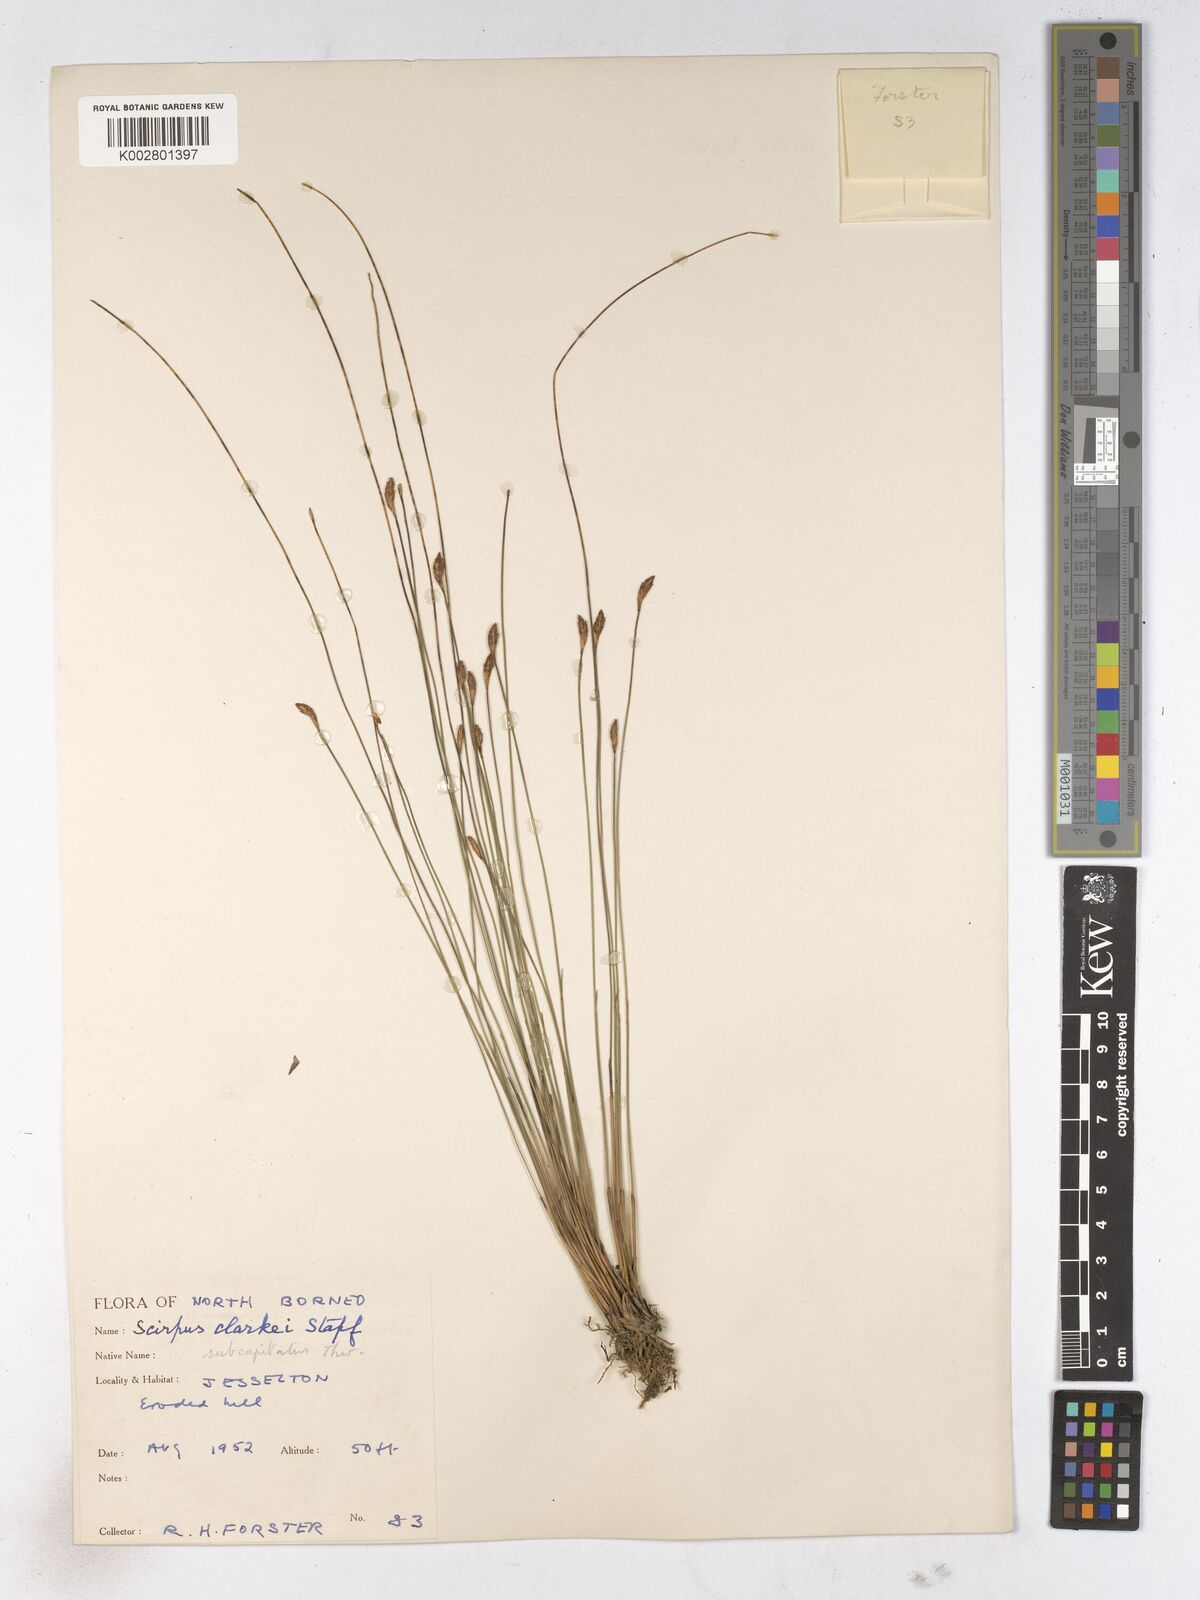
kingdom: Plantae
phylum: Tracheophyta
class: Liliopsida
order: Poales
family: Cyperaceae
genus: Trichophorum
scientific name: Trichophorum subcapitatum
